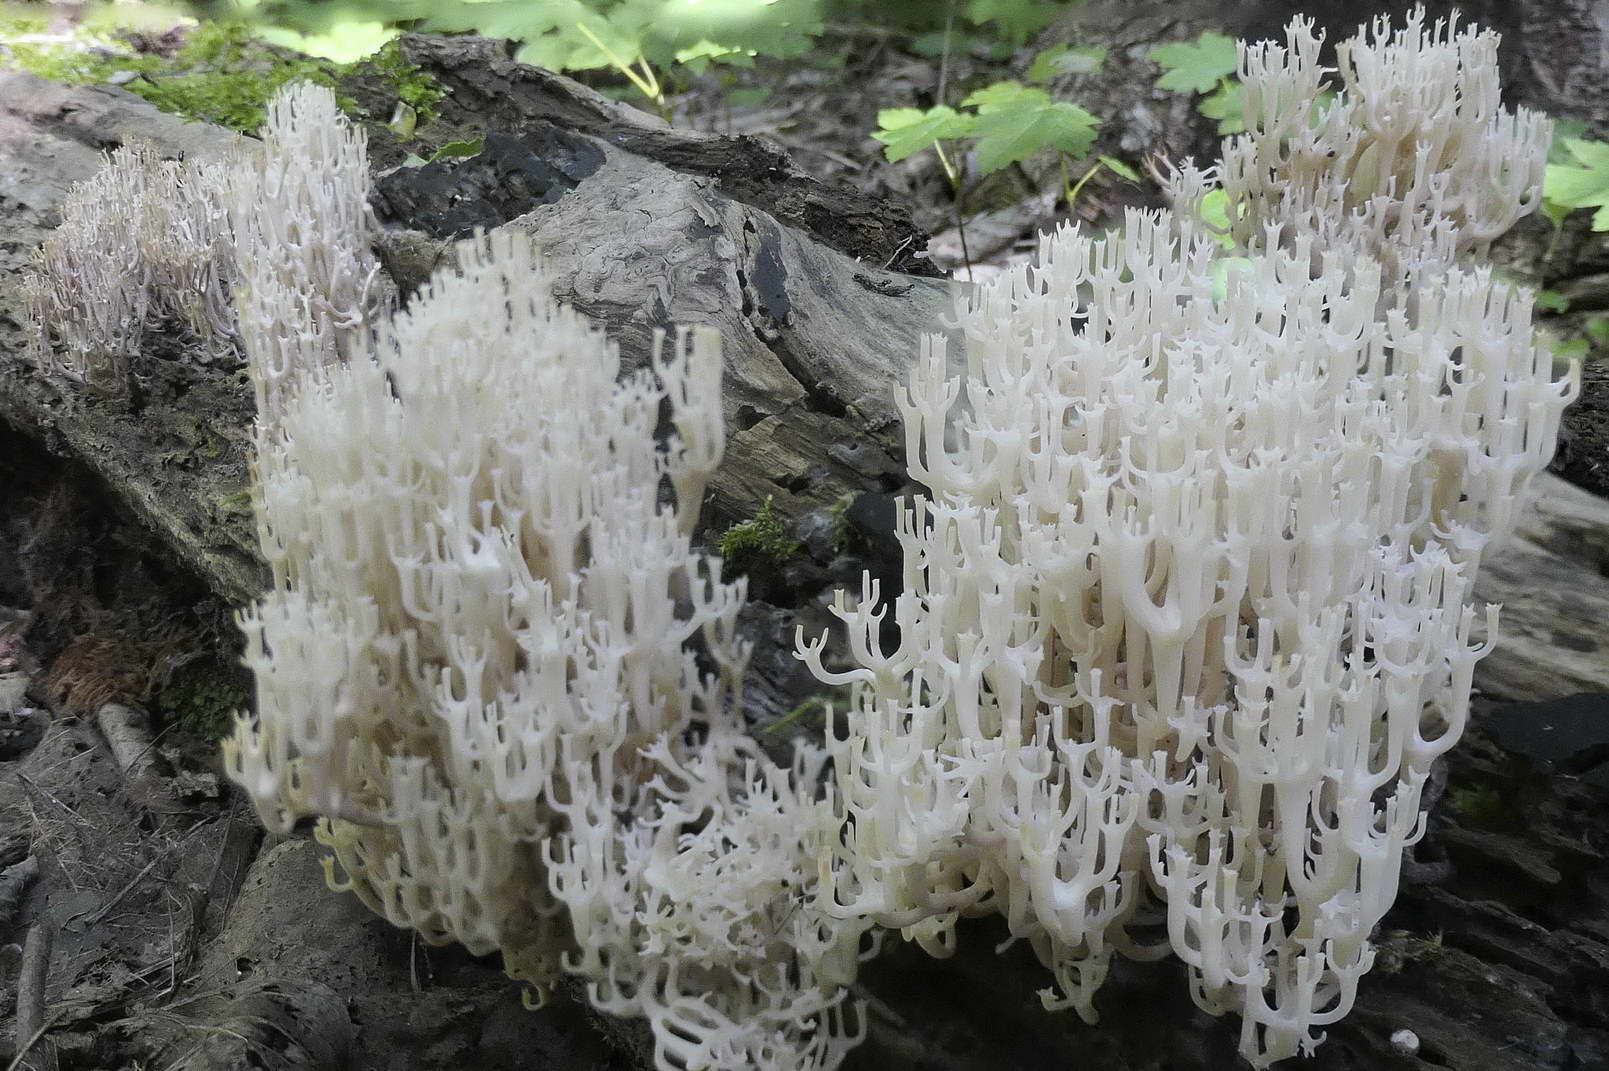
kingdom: Fungi
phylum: Basidiomycota
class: Agaricomycetes
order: Russulales
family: Auriscalpiaceae
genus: Artomyces
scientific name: Artomyces pyxidatus
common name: kandelabersvamp
